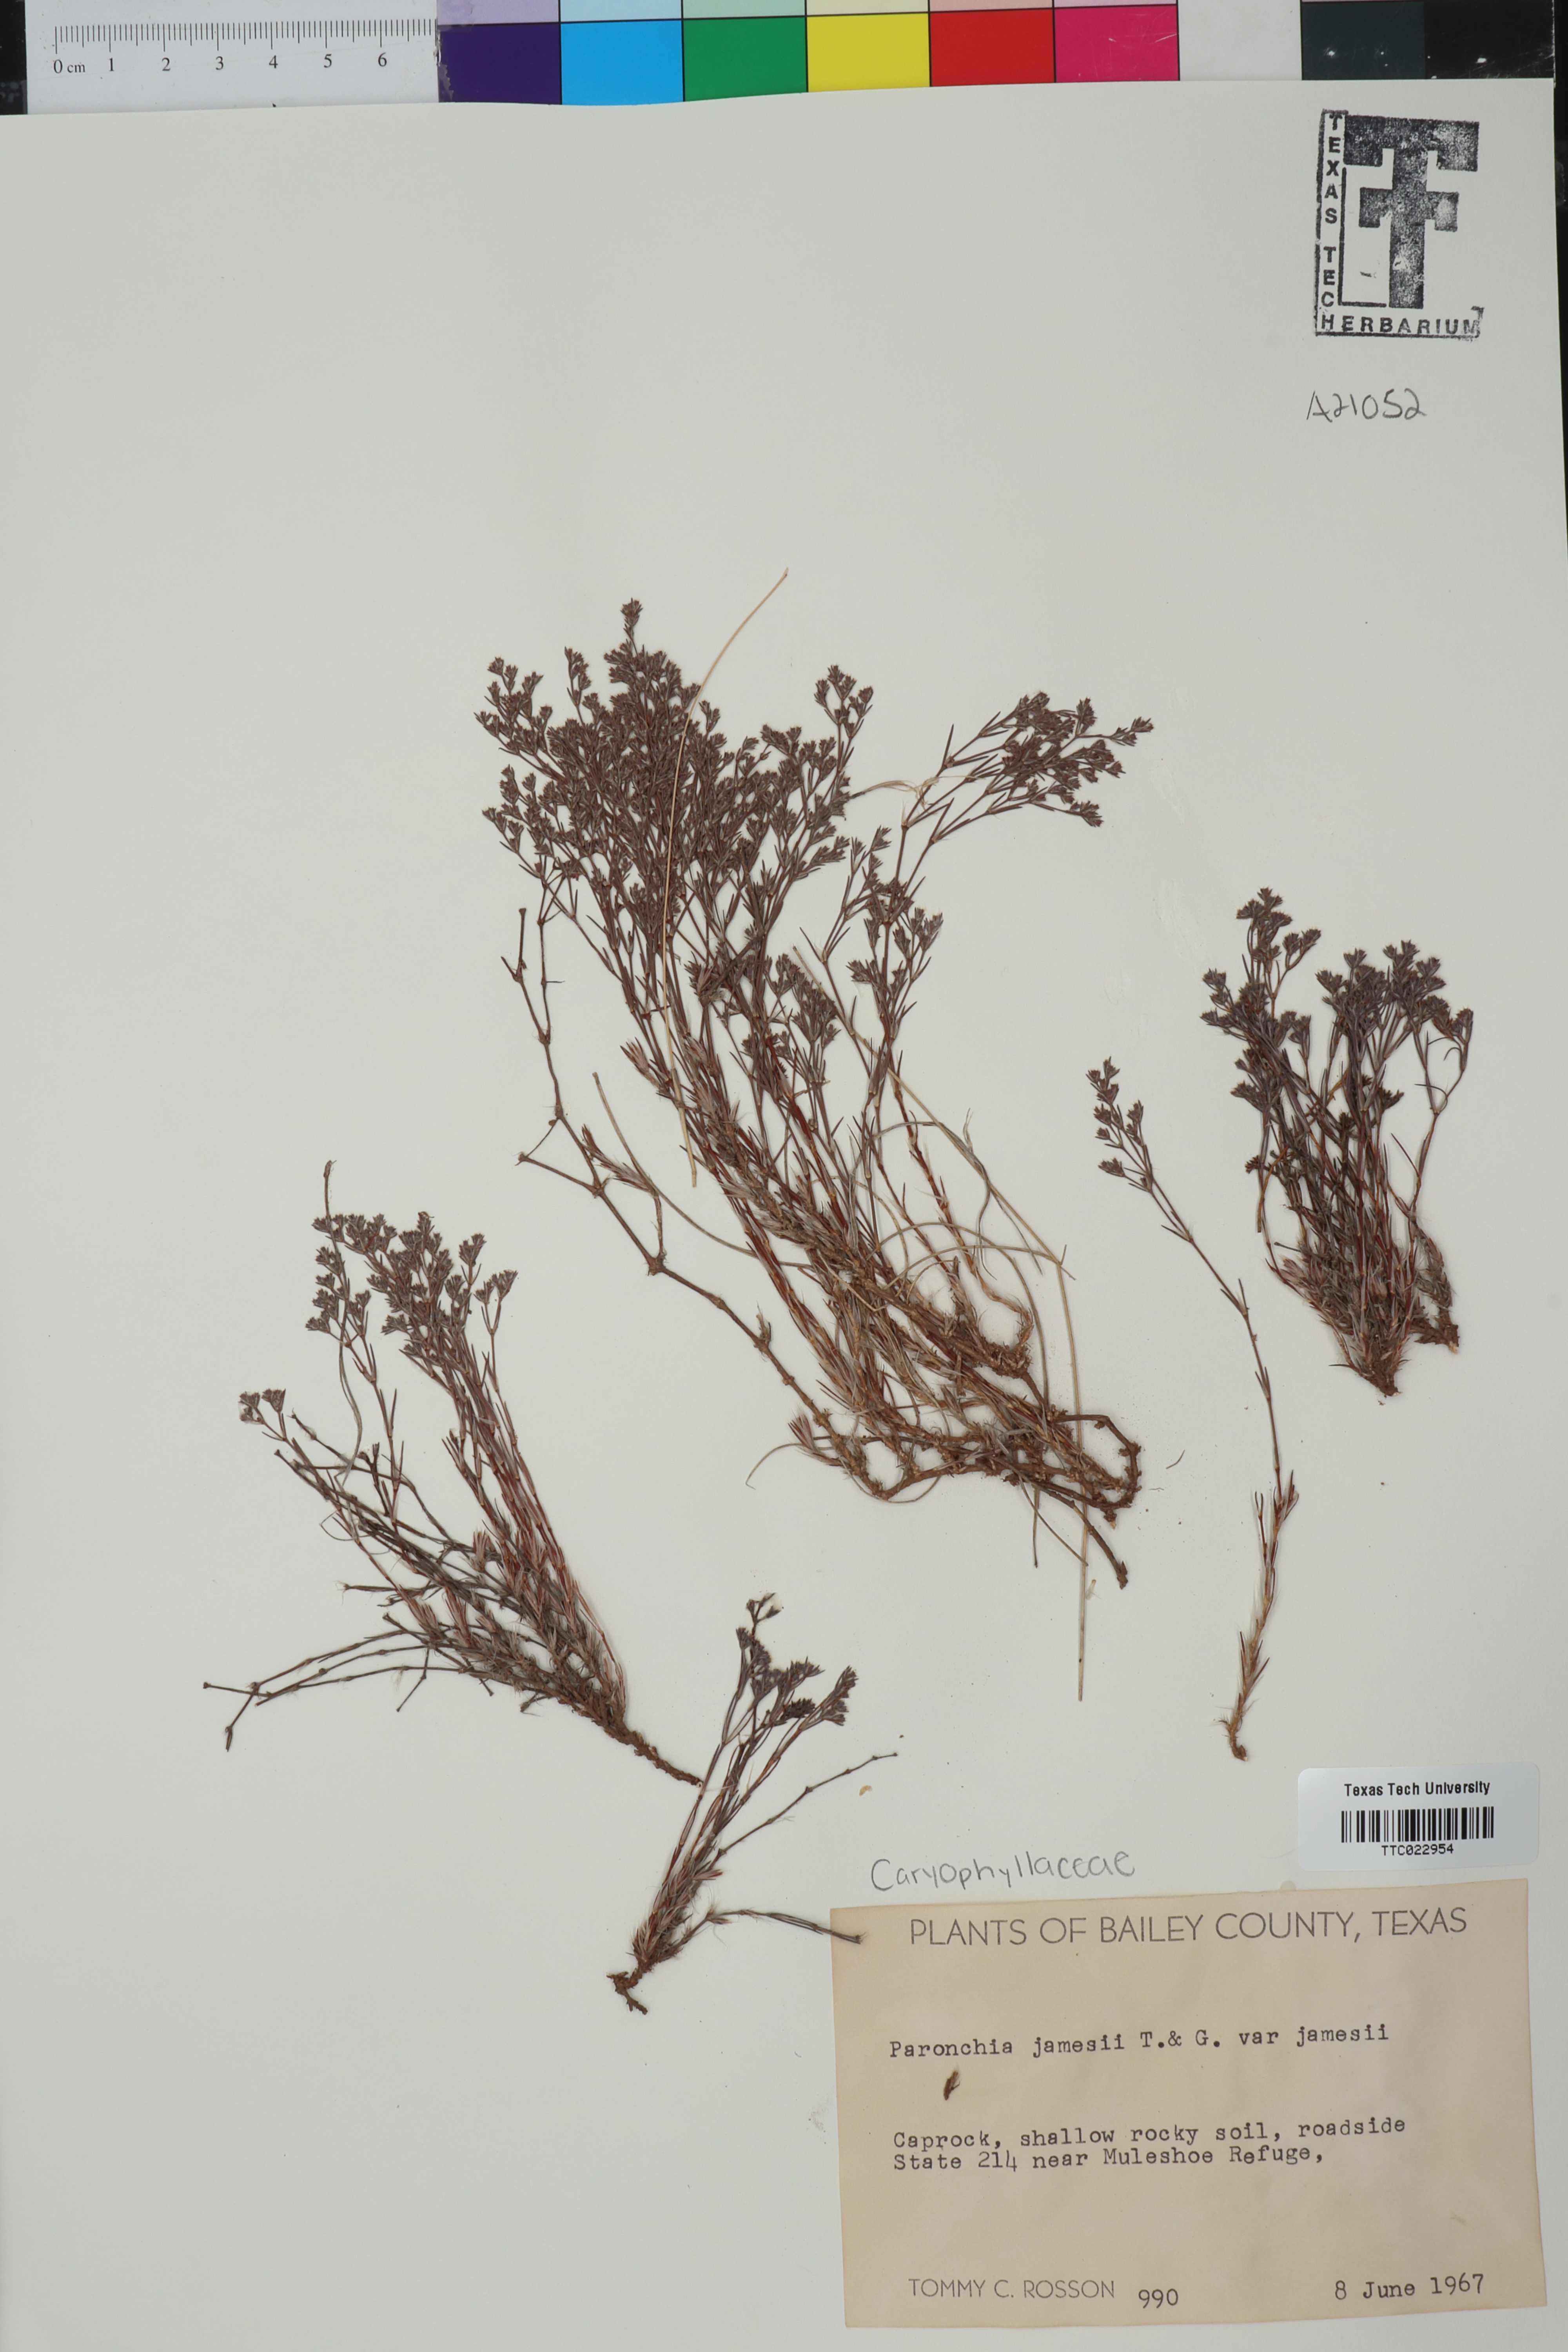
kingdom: Plantae
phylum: Tracheophyta
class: Magnoliopsida
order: Caryophyllales
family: Caryophyllaceae
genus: Paronychia
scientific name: Paronychia jamesii
